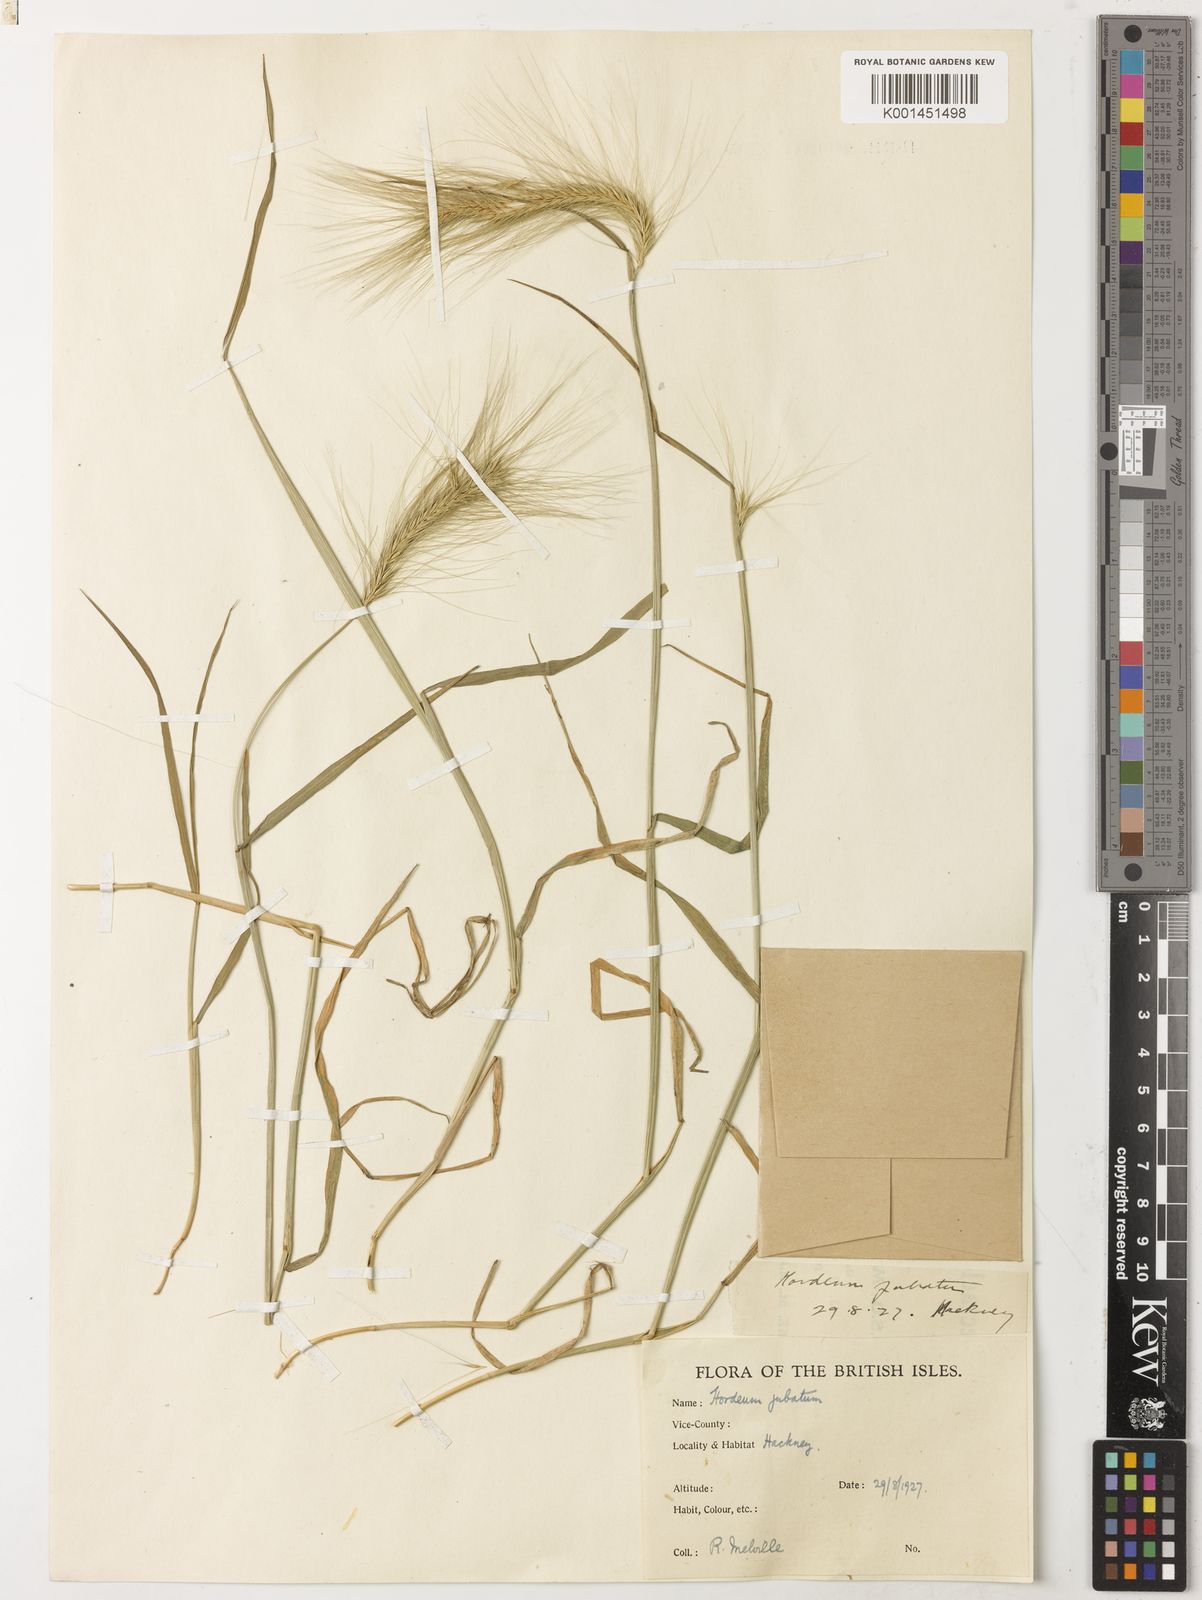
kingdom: Plantae
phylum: Tracheophyta
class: Liliopsida
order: Poales
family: Poaceae
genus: Hordeum
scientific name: Hordeum jubatum
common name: Foxtail barley
